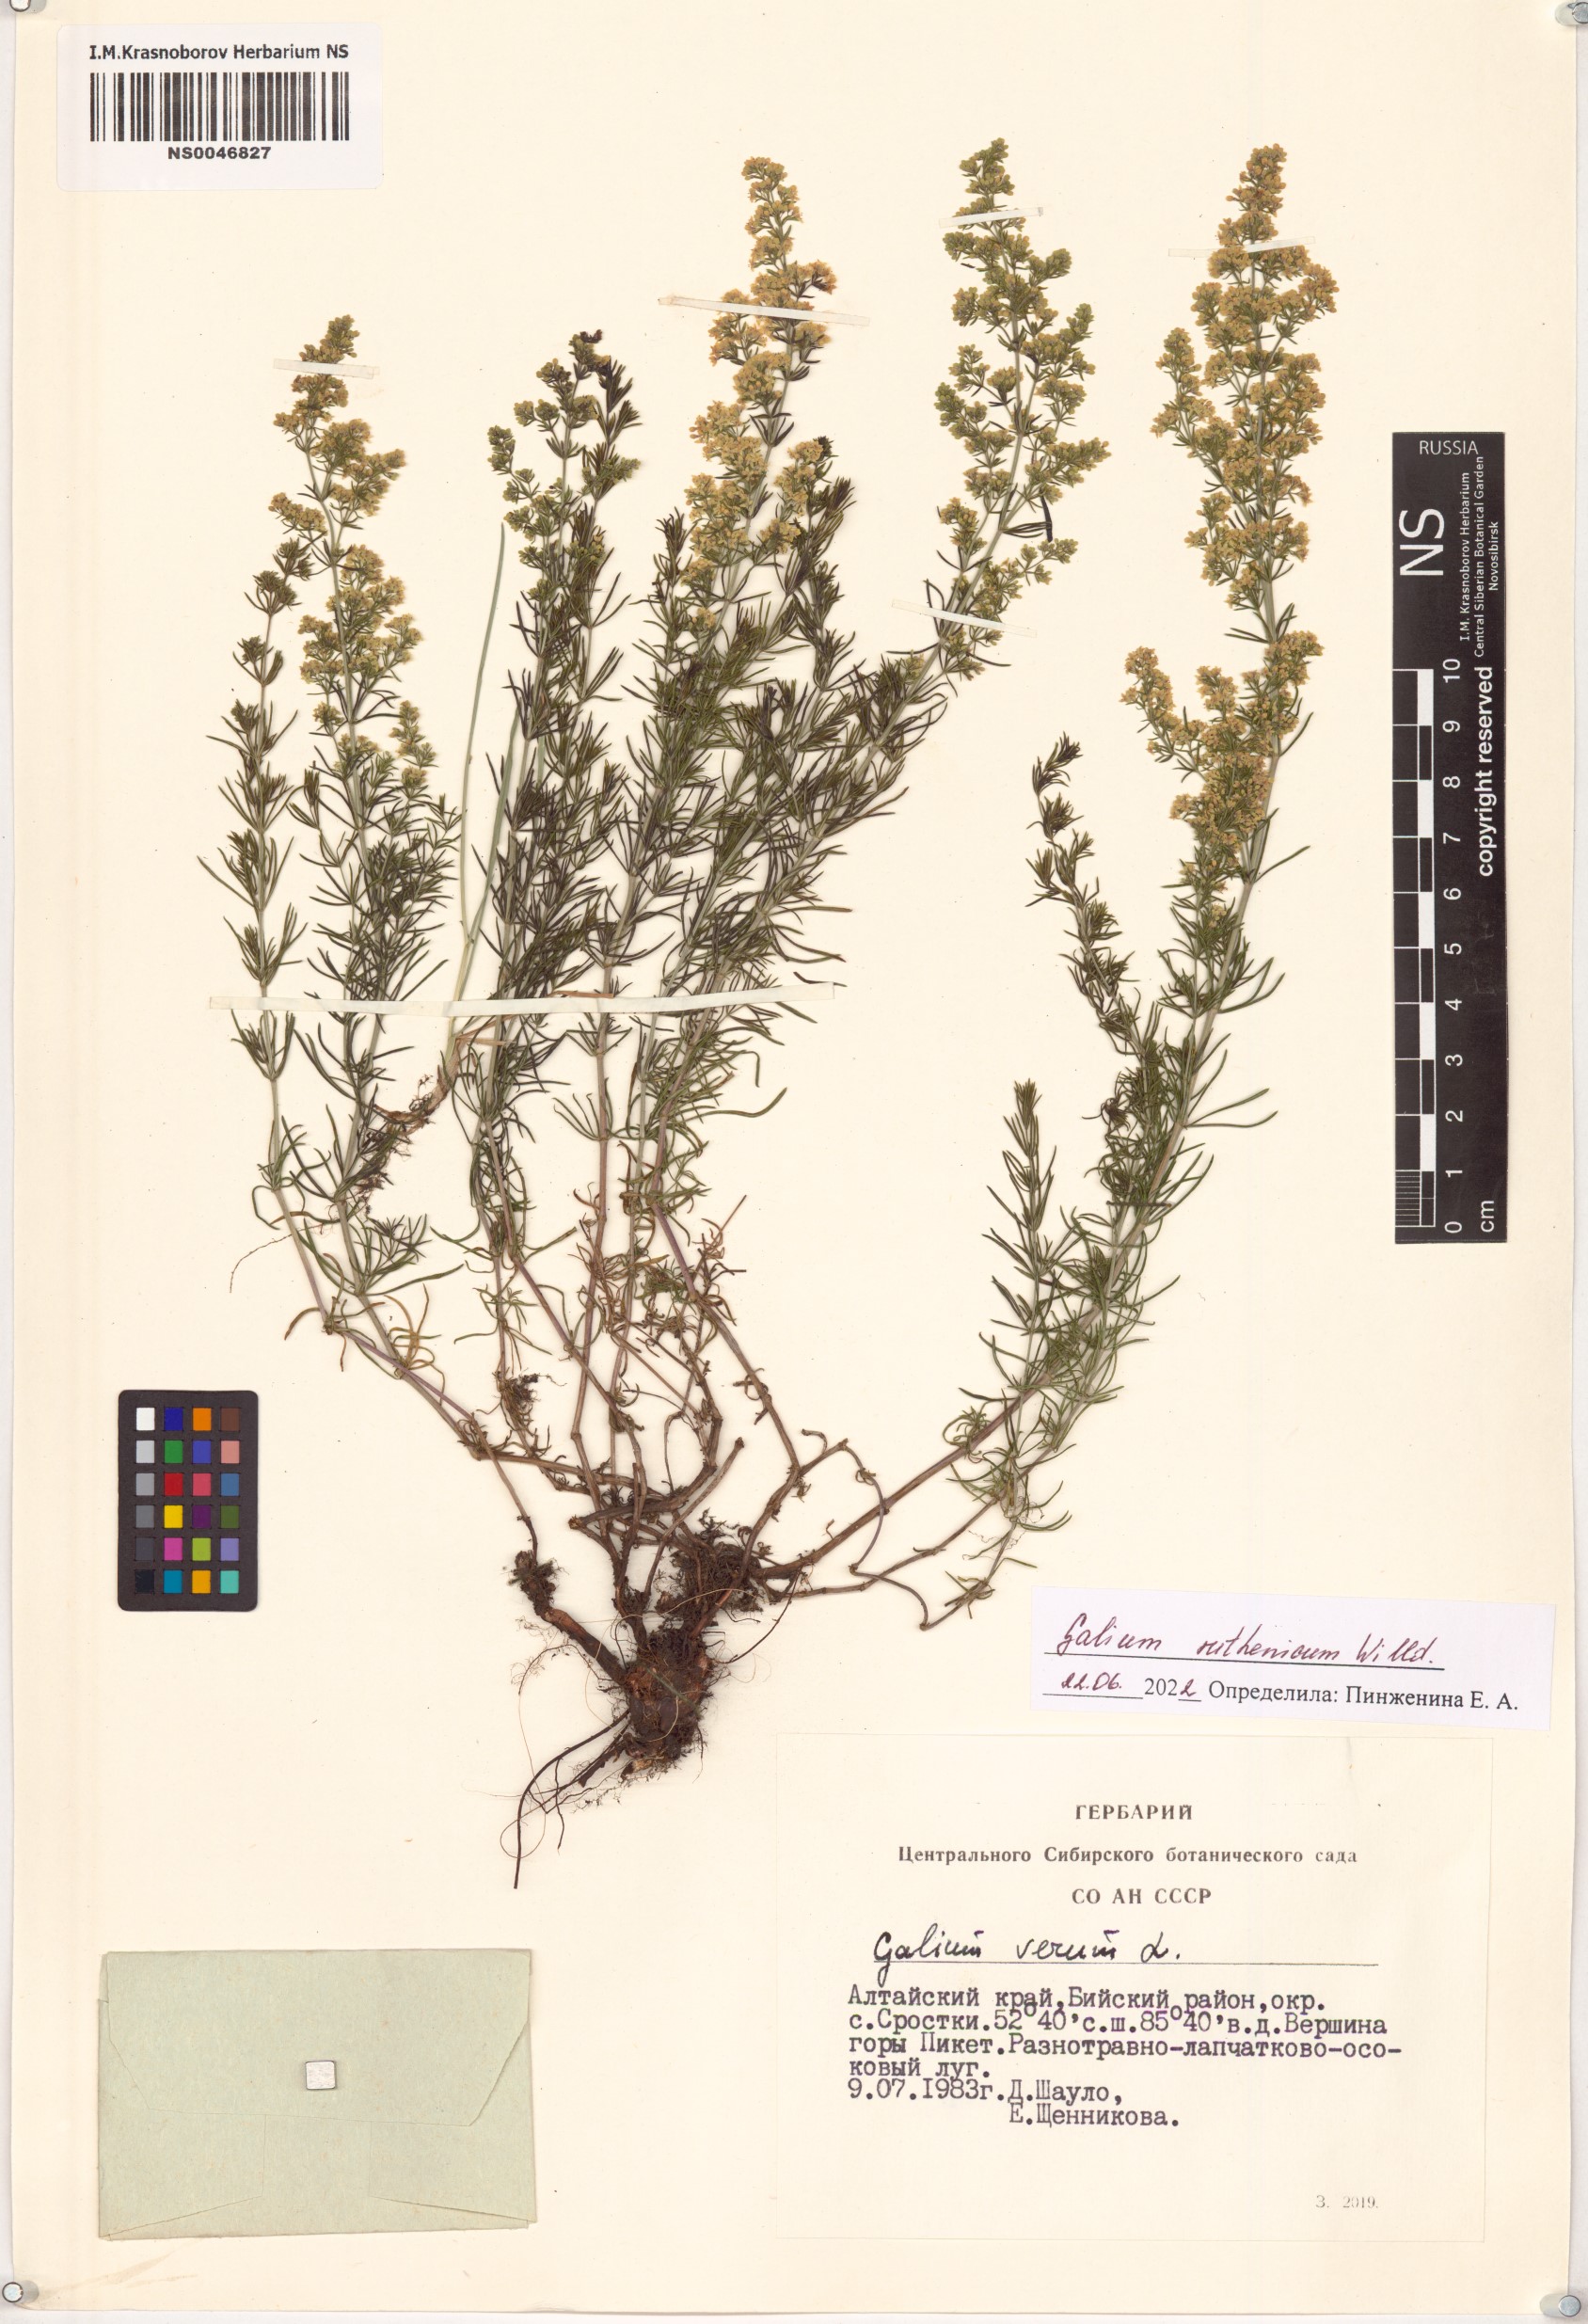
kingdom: Plantae
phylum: Tracheophyta
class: Magnoliopsida
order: Gentianales
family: Rubiaceae
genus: Galium
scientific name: Galium verum
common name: Lady's bedstraw
